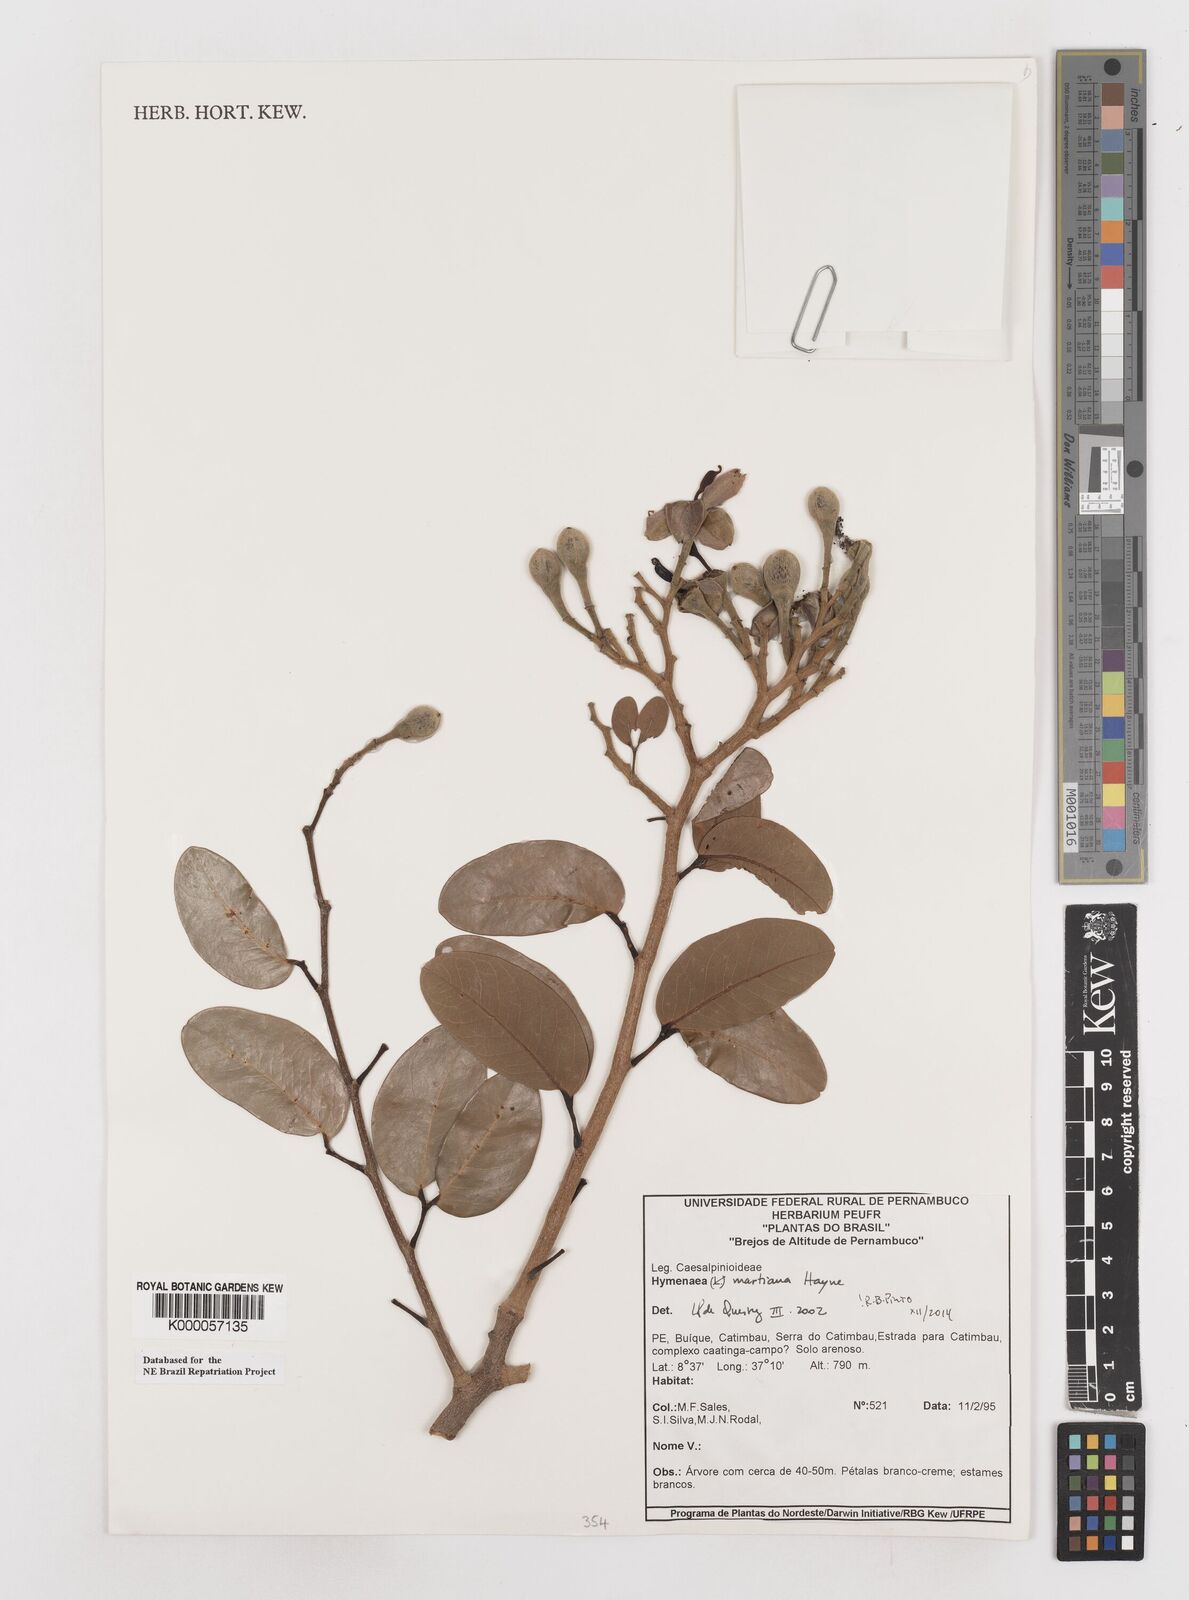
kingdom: Plantae
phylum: Tracheophyta
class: Magnoliopsida
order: Fabales
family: Fabaceae
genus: Hymenaea
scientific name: Hymenaea martiana
